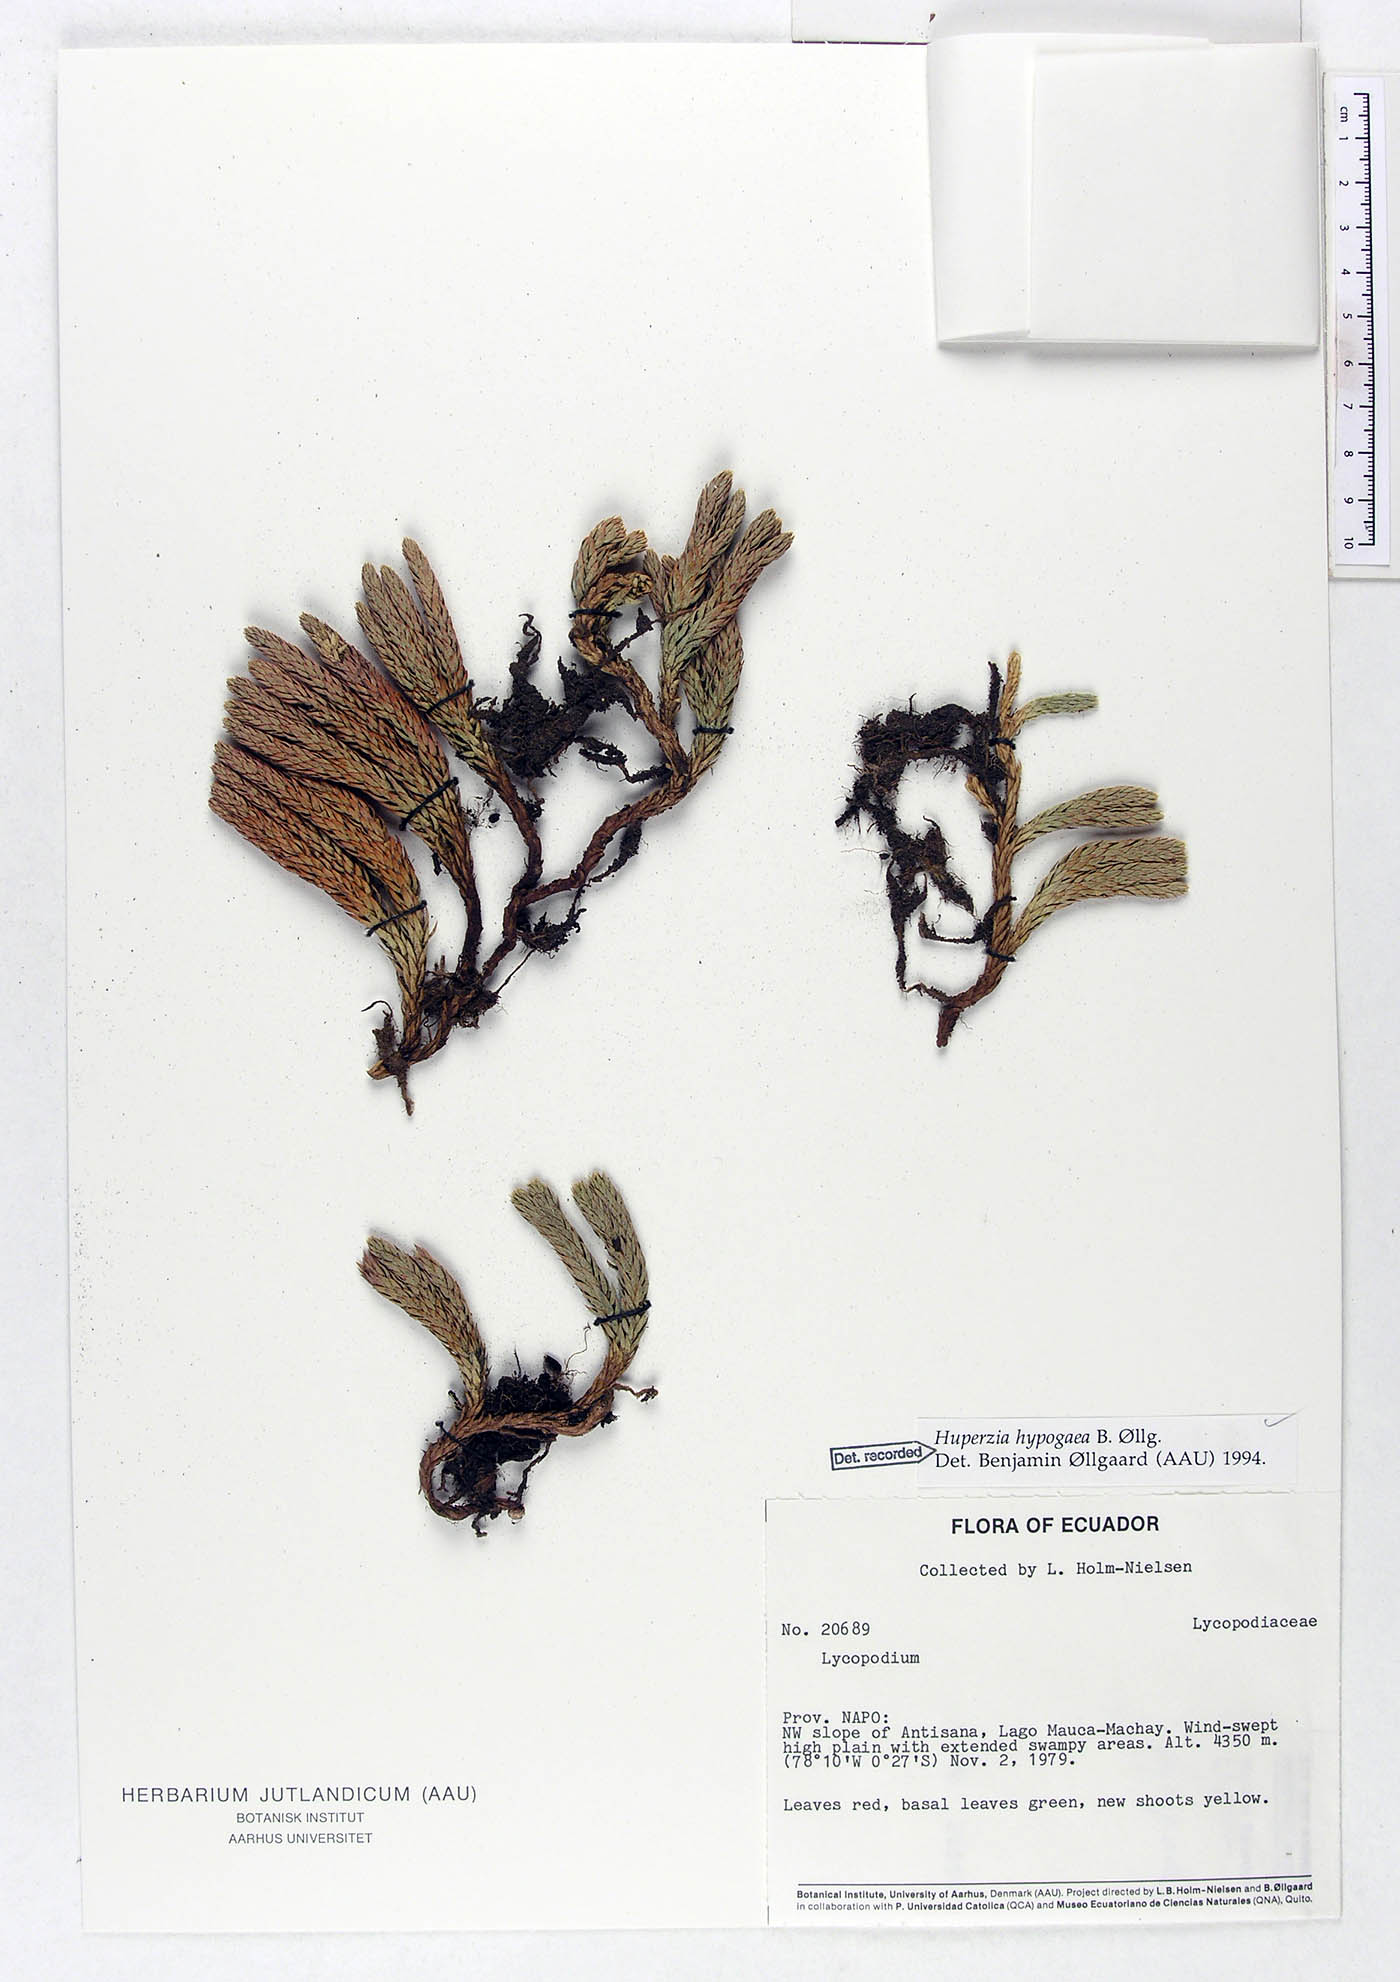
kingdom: Plantae
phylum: Tracheophyta
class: Lycopodiopsida
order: Lycopodiales
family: Lycopodiaceae
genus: Phlegmariurus
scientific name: Phlegmariurus hypogaeus
